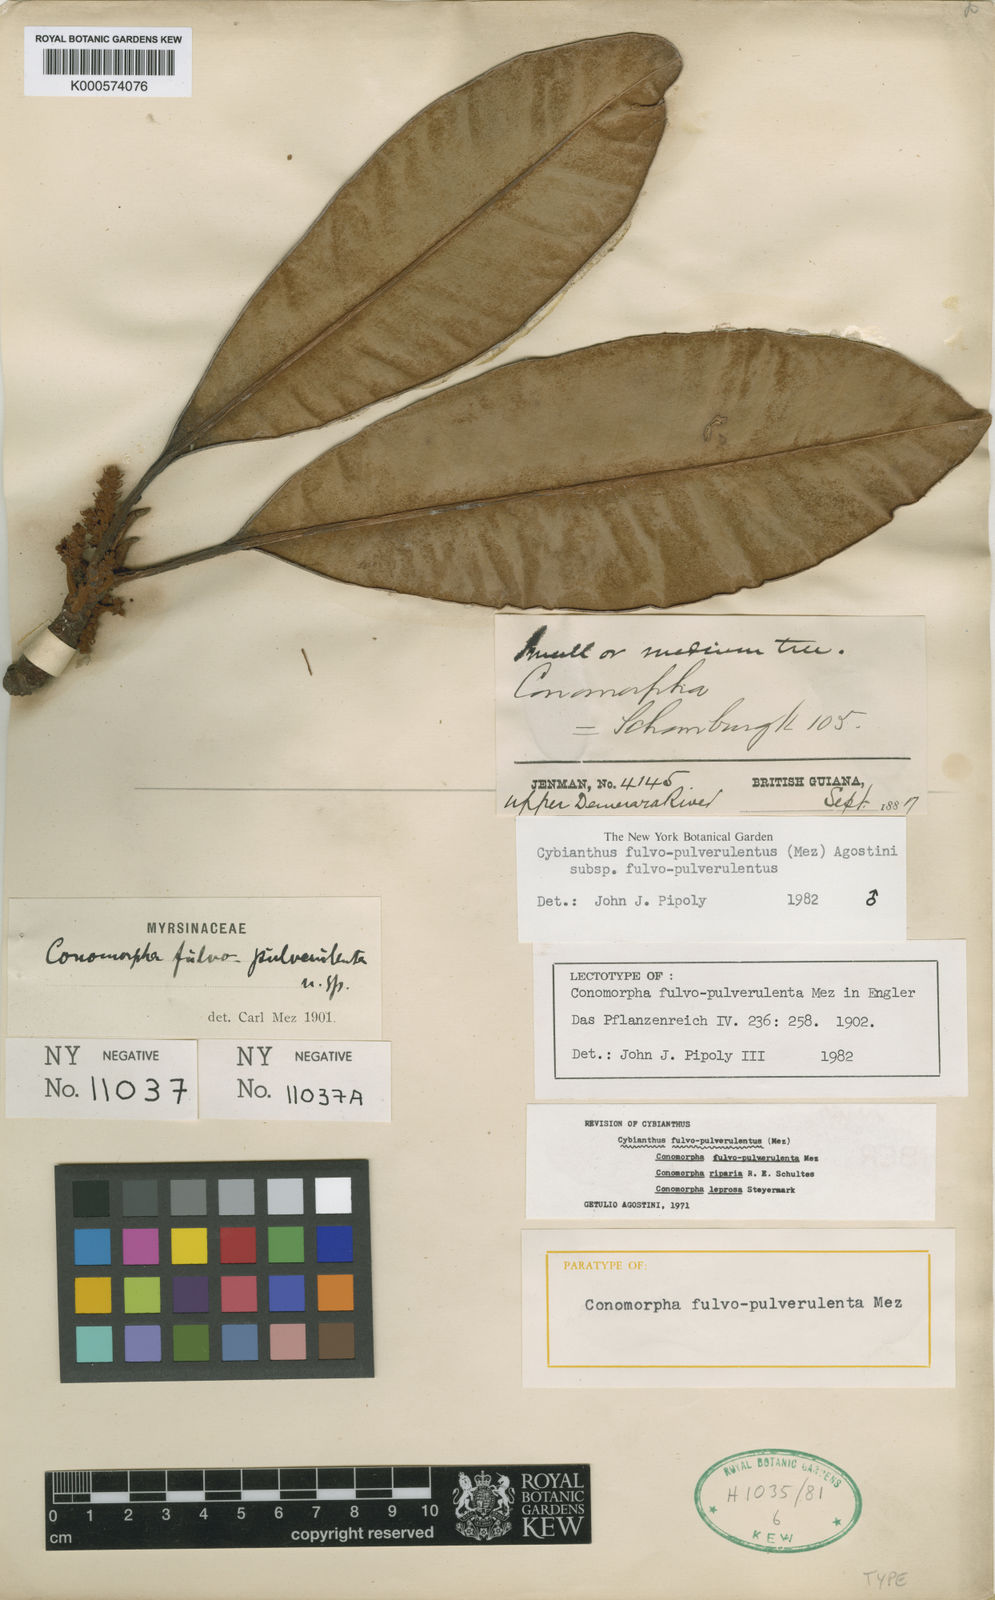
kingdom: Plantae
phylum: Tracheophyta
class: Magnoliopsida
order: Ericales
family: Primulaceae
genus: Cybianthus
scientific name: Cybianthus fulvopulverulentus
